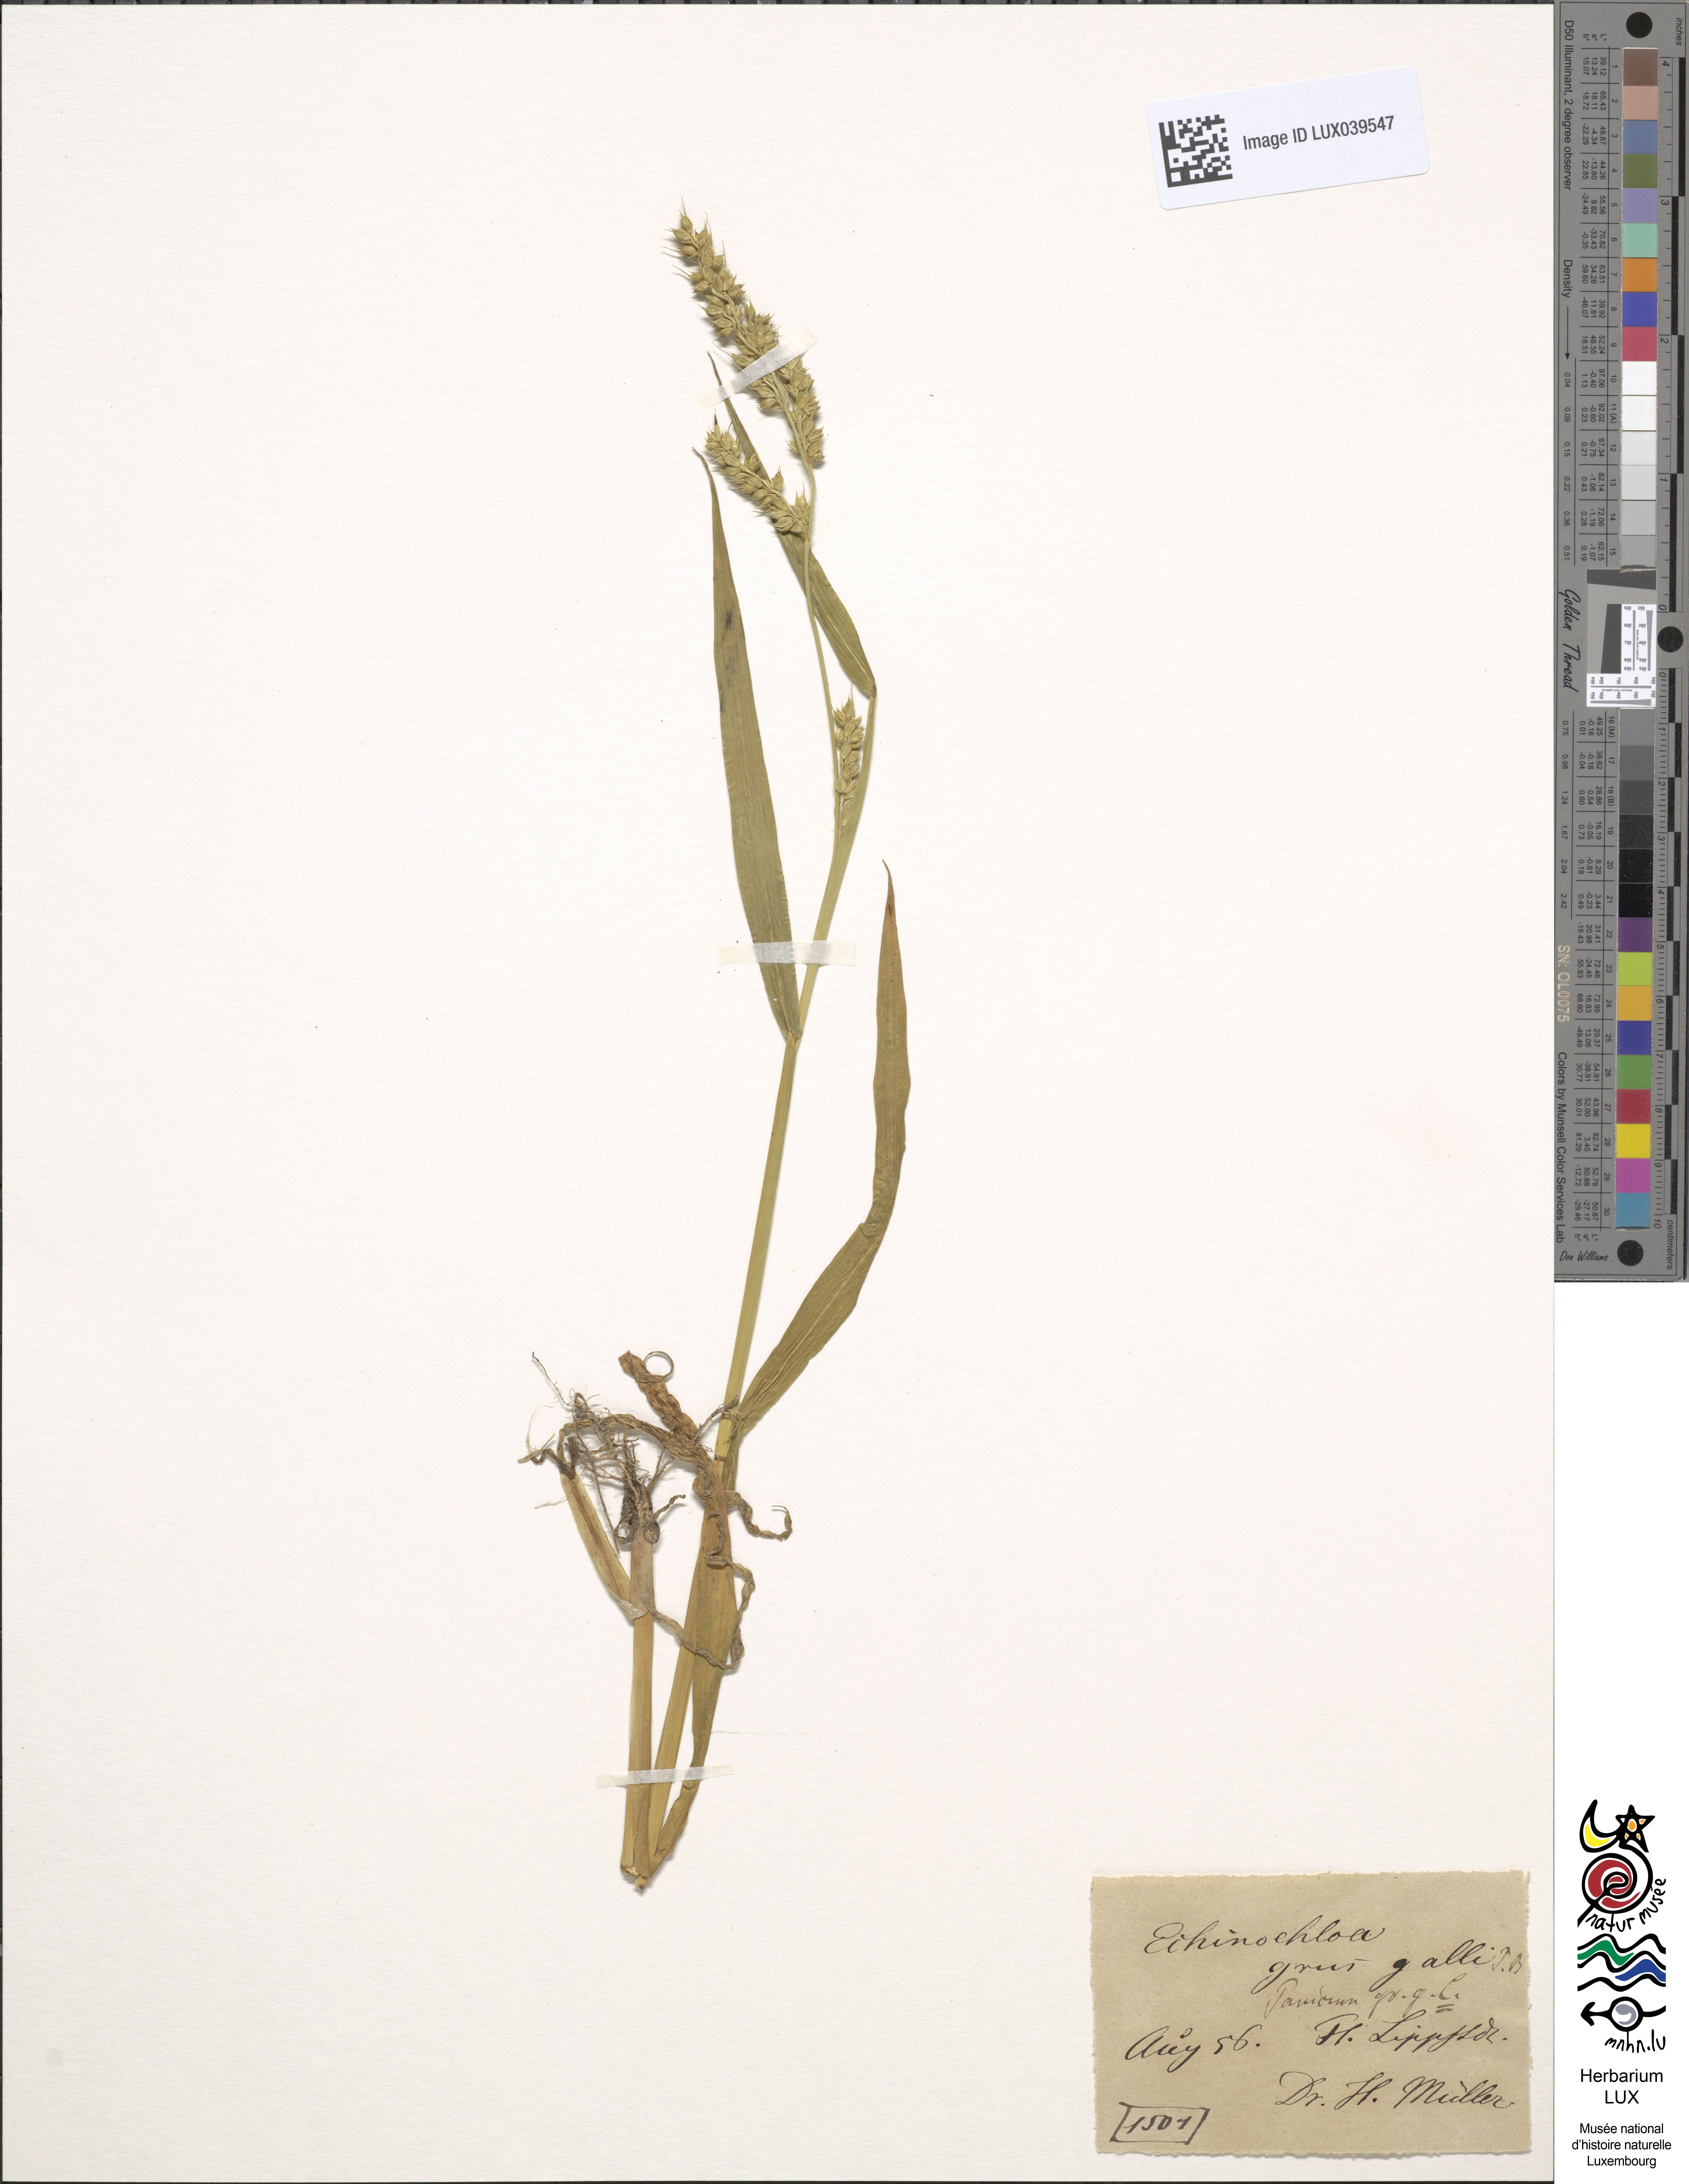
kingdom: Plantae
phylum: Tracheophyta
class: Liliopsida
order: Poales
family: Poaceae
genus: Echinochloa
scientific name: Echinochloa crus-galli
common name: Cockspur
